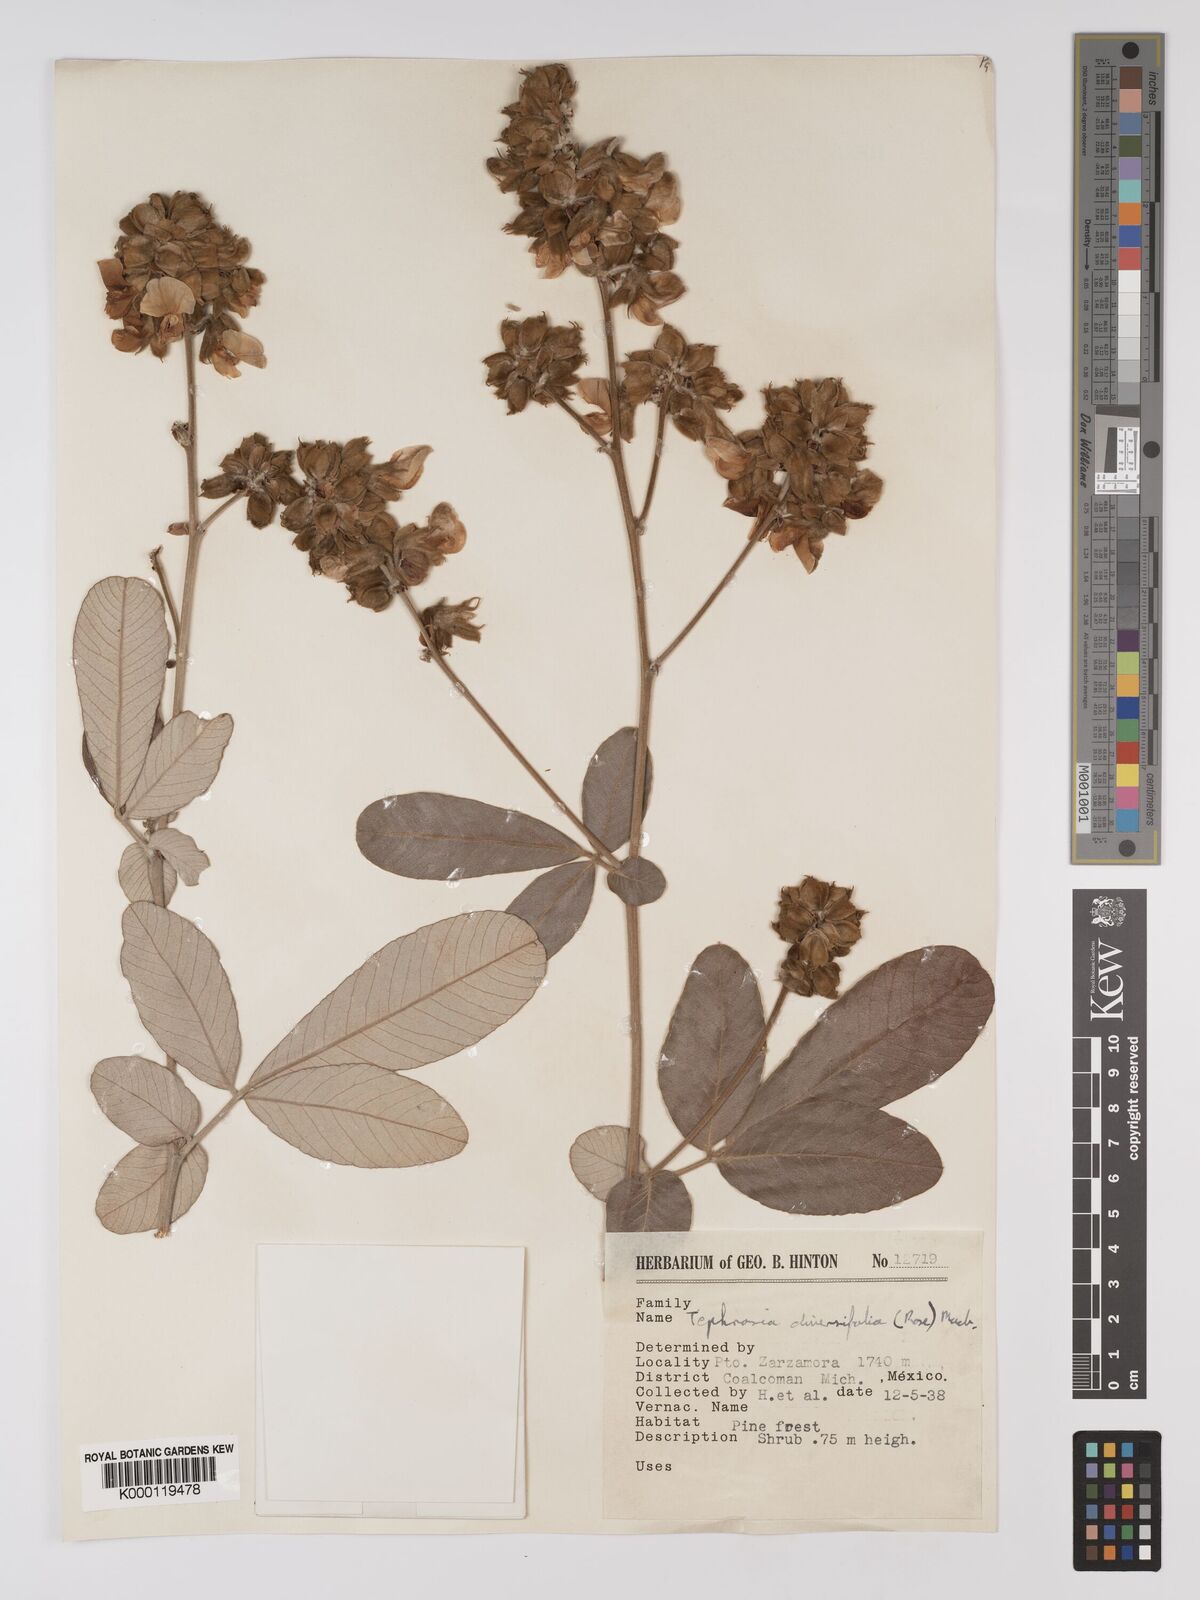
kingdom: Plantae
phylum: Tracheophyta
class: Magnoliopsida
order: Fabales
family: Fabaceae
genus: Tephrosia
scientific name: Tephrosia diversifolia
